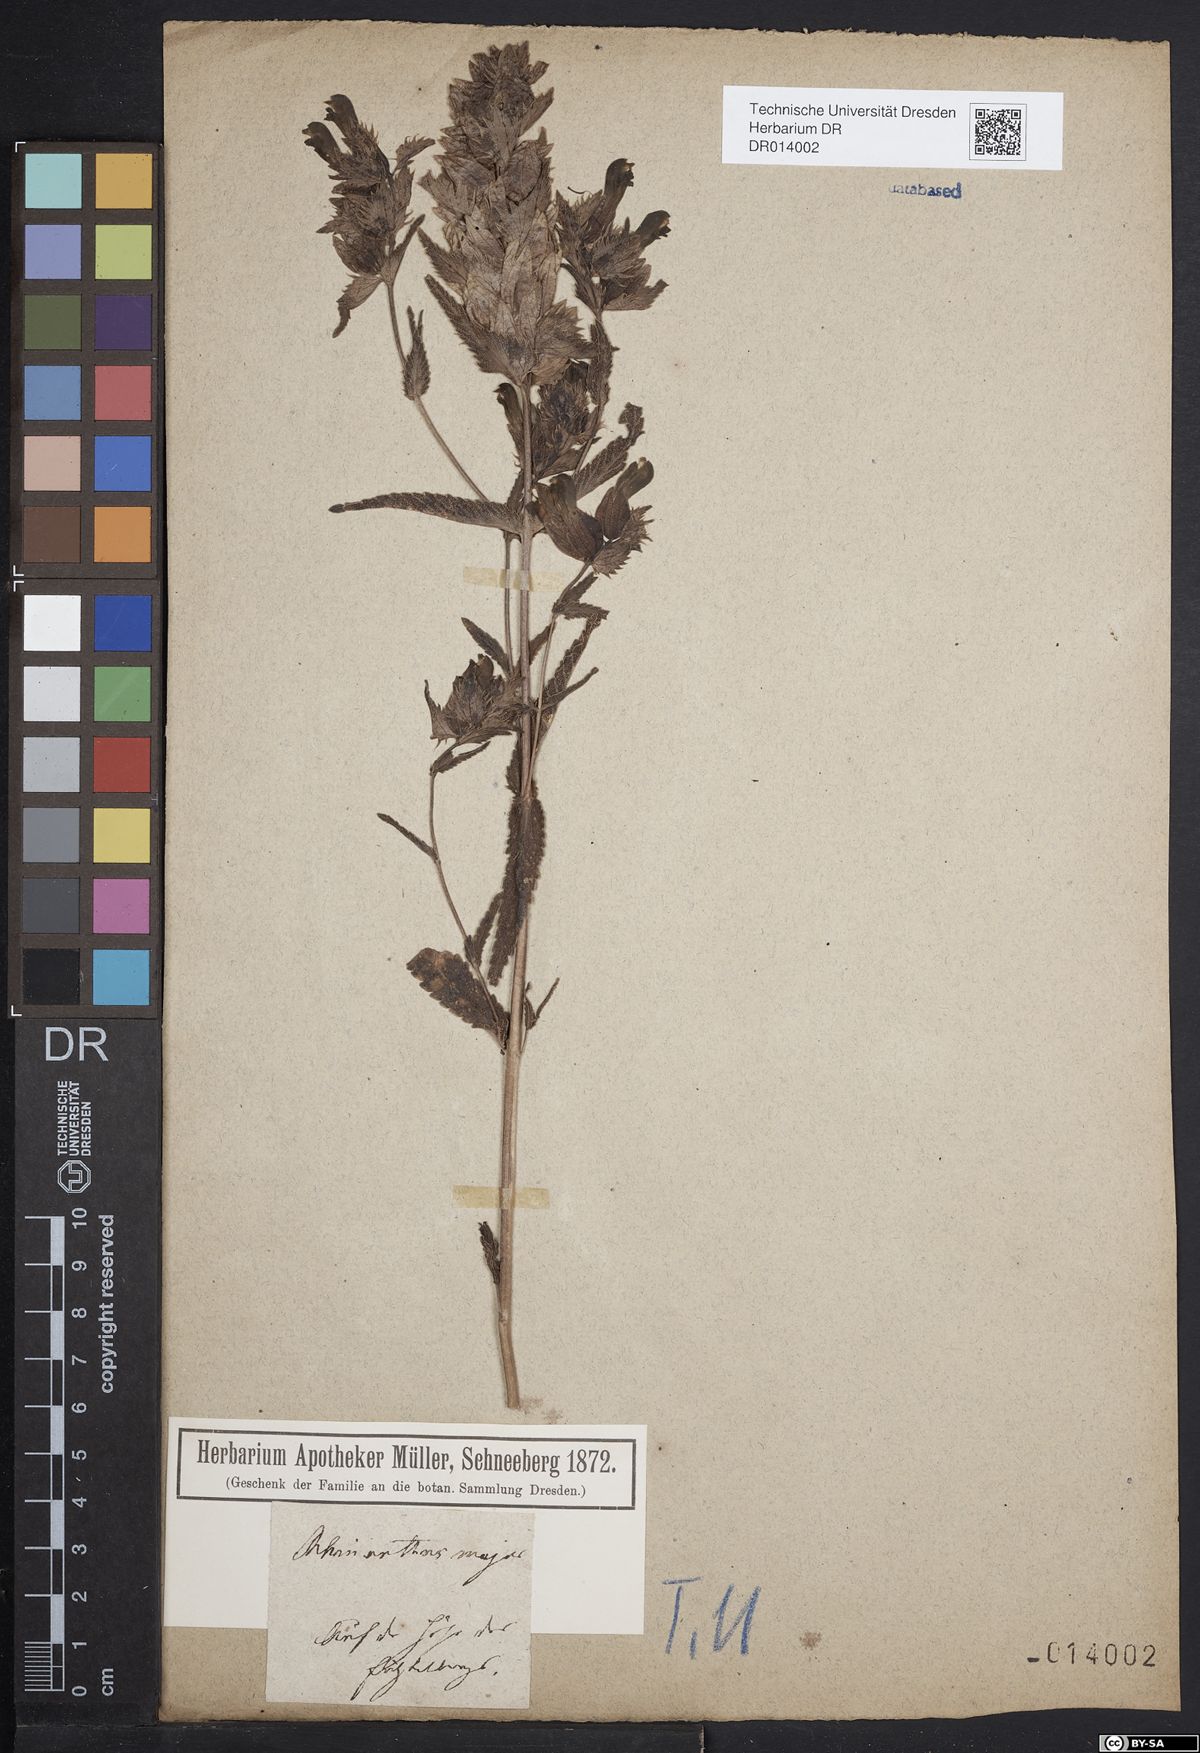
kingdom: Plantae
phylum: Tracheophyta
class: Magnoliopsida
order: Lamiales
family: Orobanchaceae
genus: Rhinanthus
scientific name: Rhinanthus serotinus
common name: Late-flowering yellow rattle
